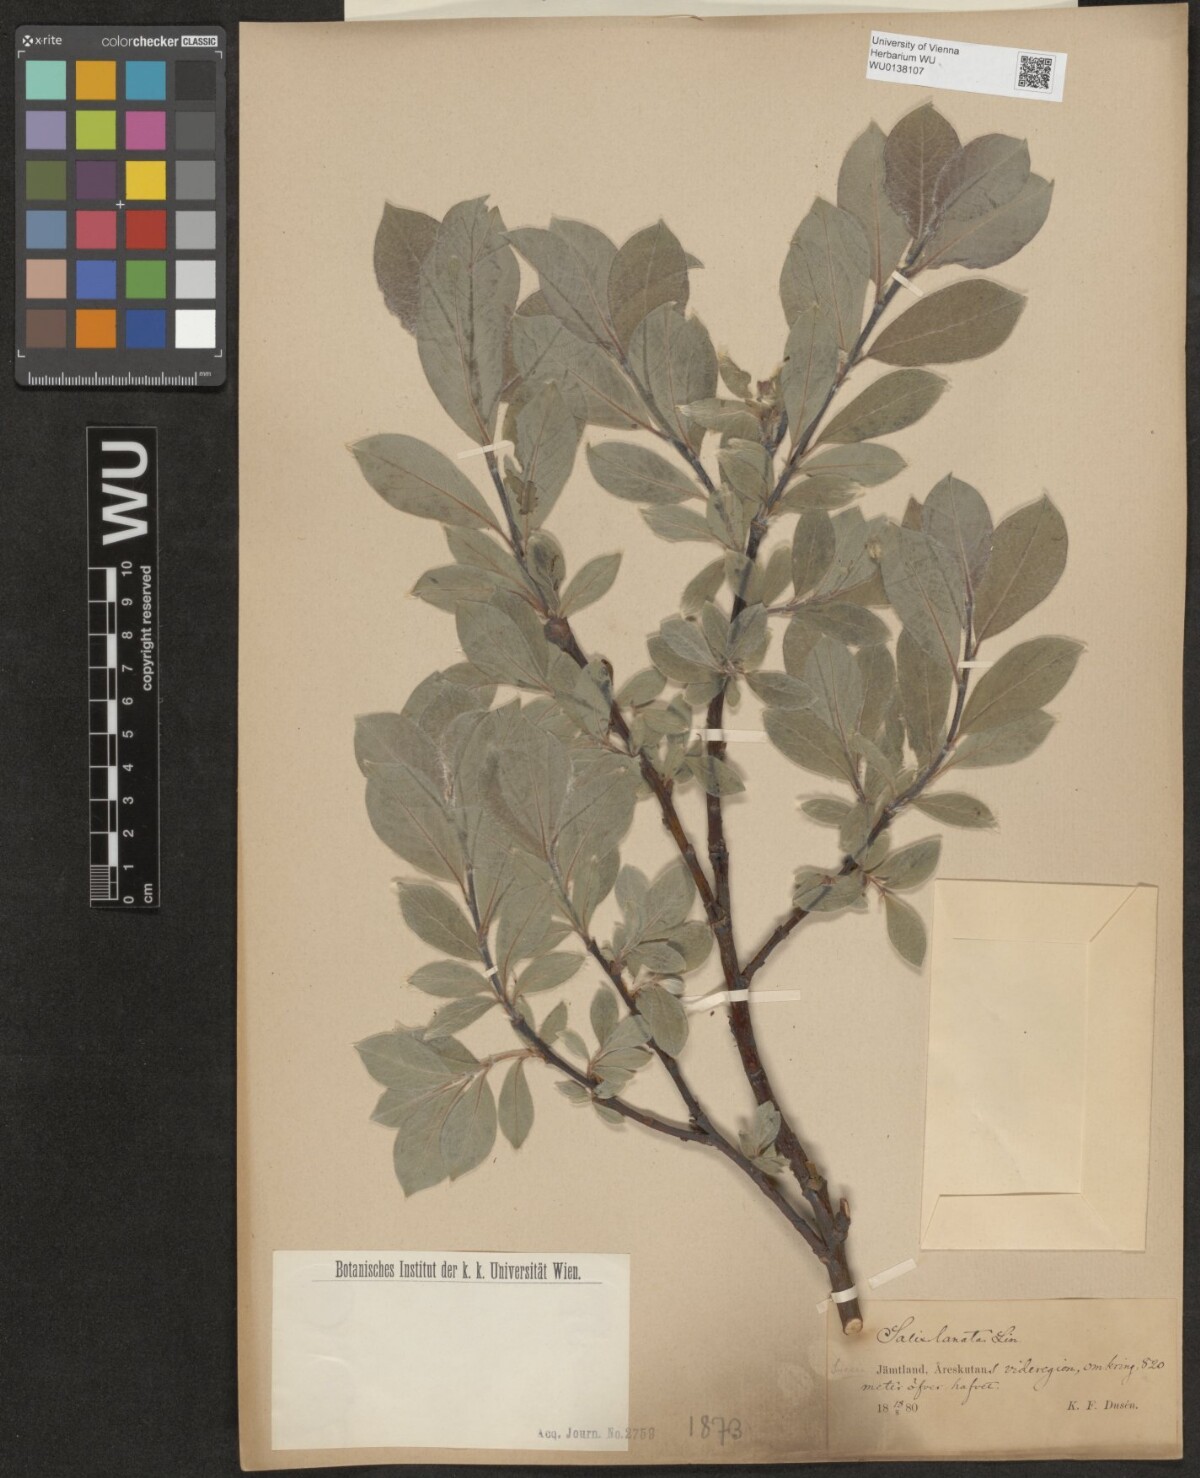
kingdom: Plantae
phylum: Tracheophyta
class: Magnoliopsida
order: Malpighiales
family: Salicaceae
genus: Salix
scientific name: Salix lanata
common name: Woolly willow
